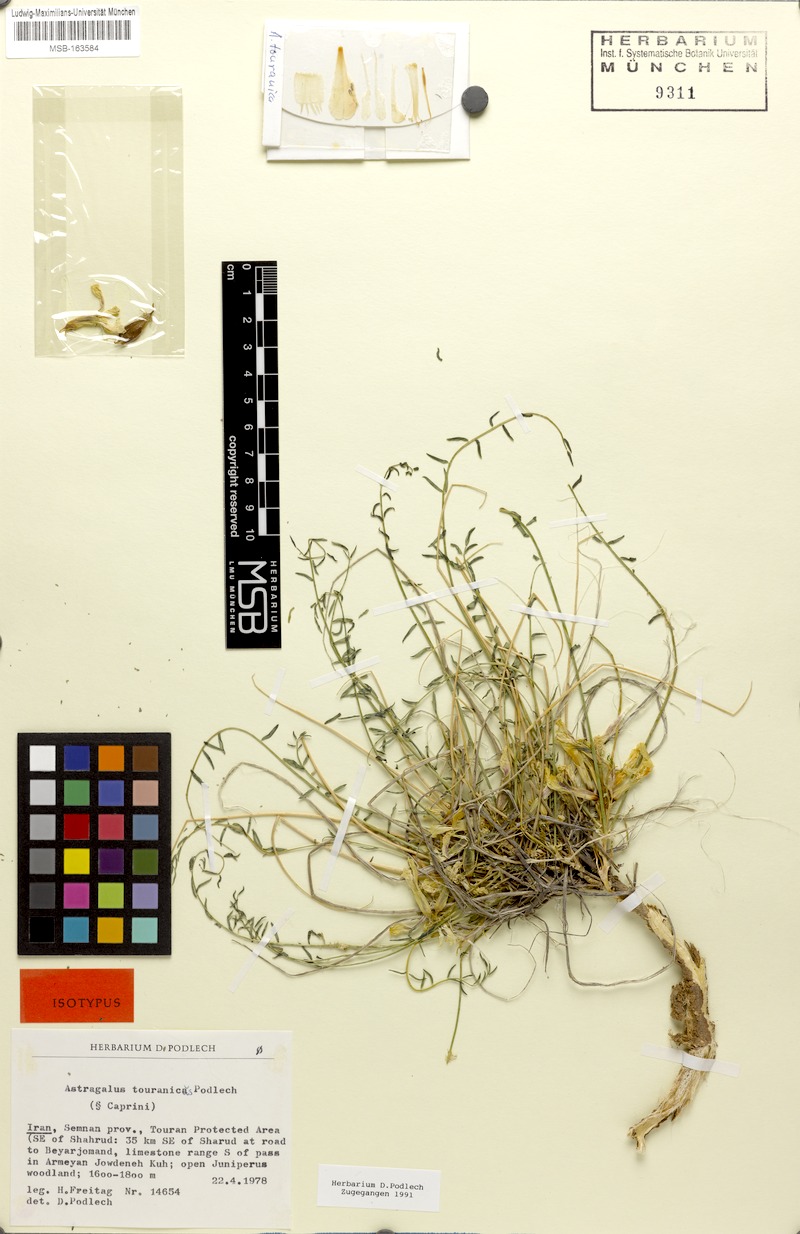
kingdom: Plantae
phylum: Tracheophyta
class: Magnoliopsida
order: Fabales
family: Fabaceae
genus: Astragalus
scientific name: Astragalus touranicus
